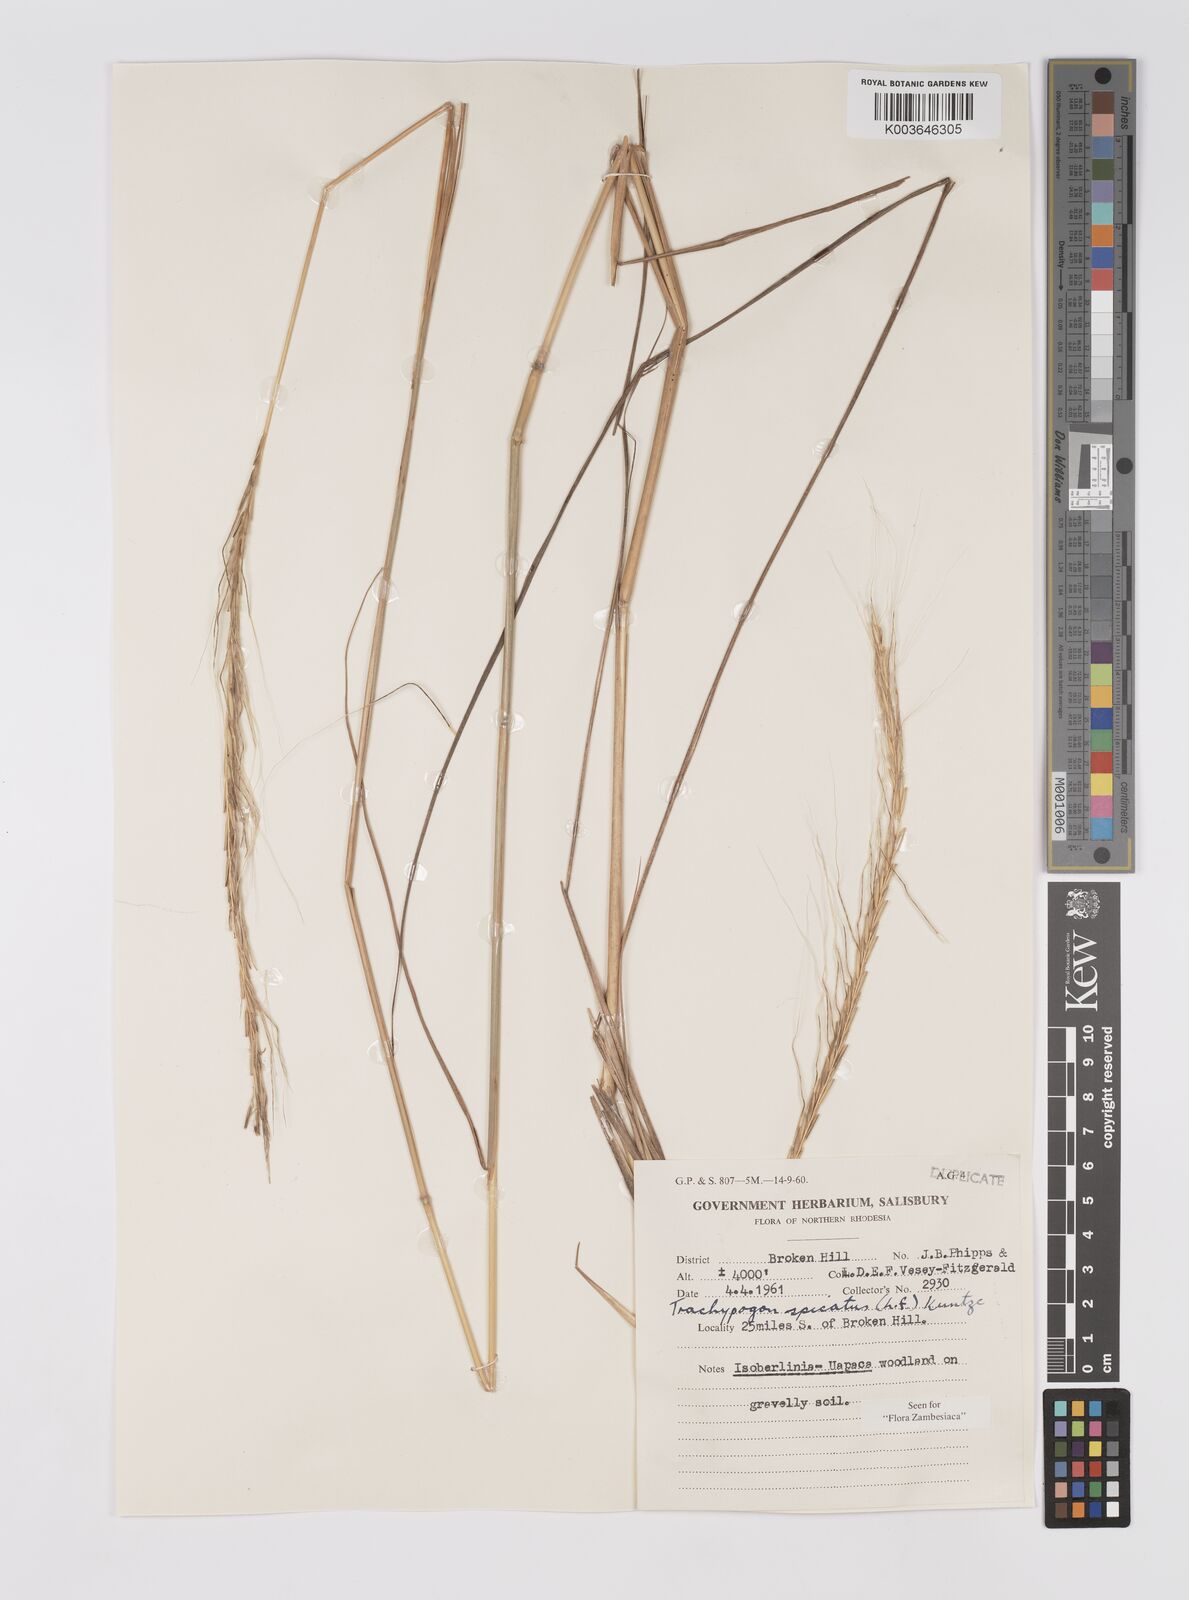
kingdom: Plantae
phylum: Tracheophyta
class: Liliopsida
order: Poales
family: Poaceae
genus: Trachypogon
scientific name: Trachypogon spicatus
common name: Crinkle-awn
